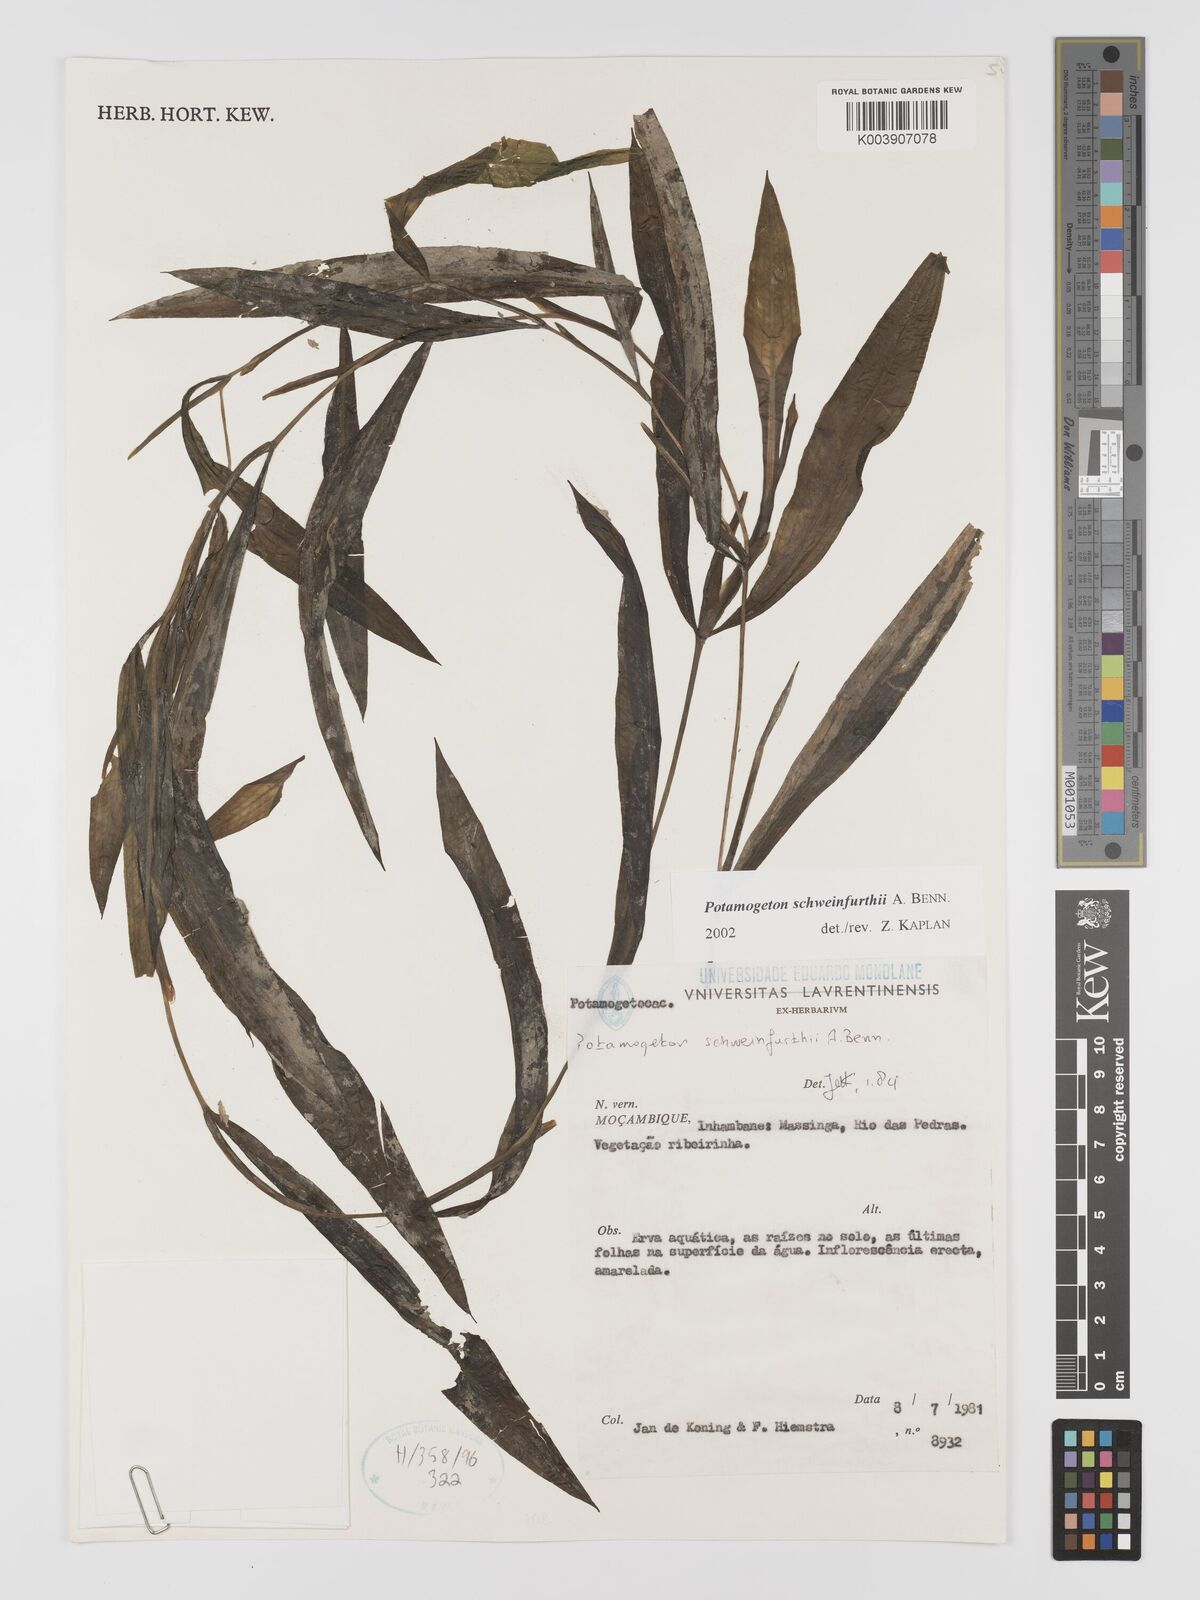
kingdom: Plantae
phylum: Tracheophyta
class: Liliopsida
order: Alismatales
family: Potamogetonaceae
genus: Potamogeton
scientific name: Potamogeton schweinfurthii
